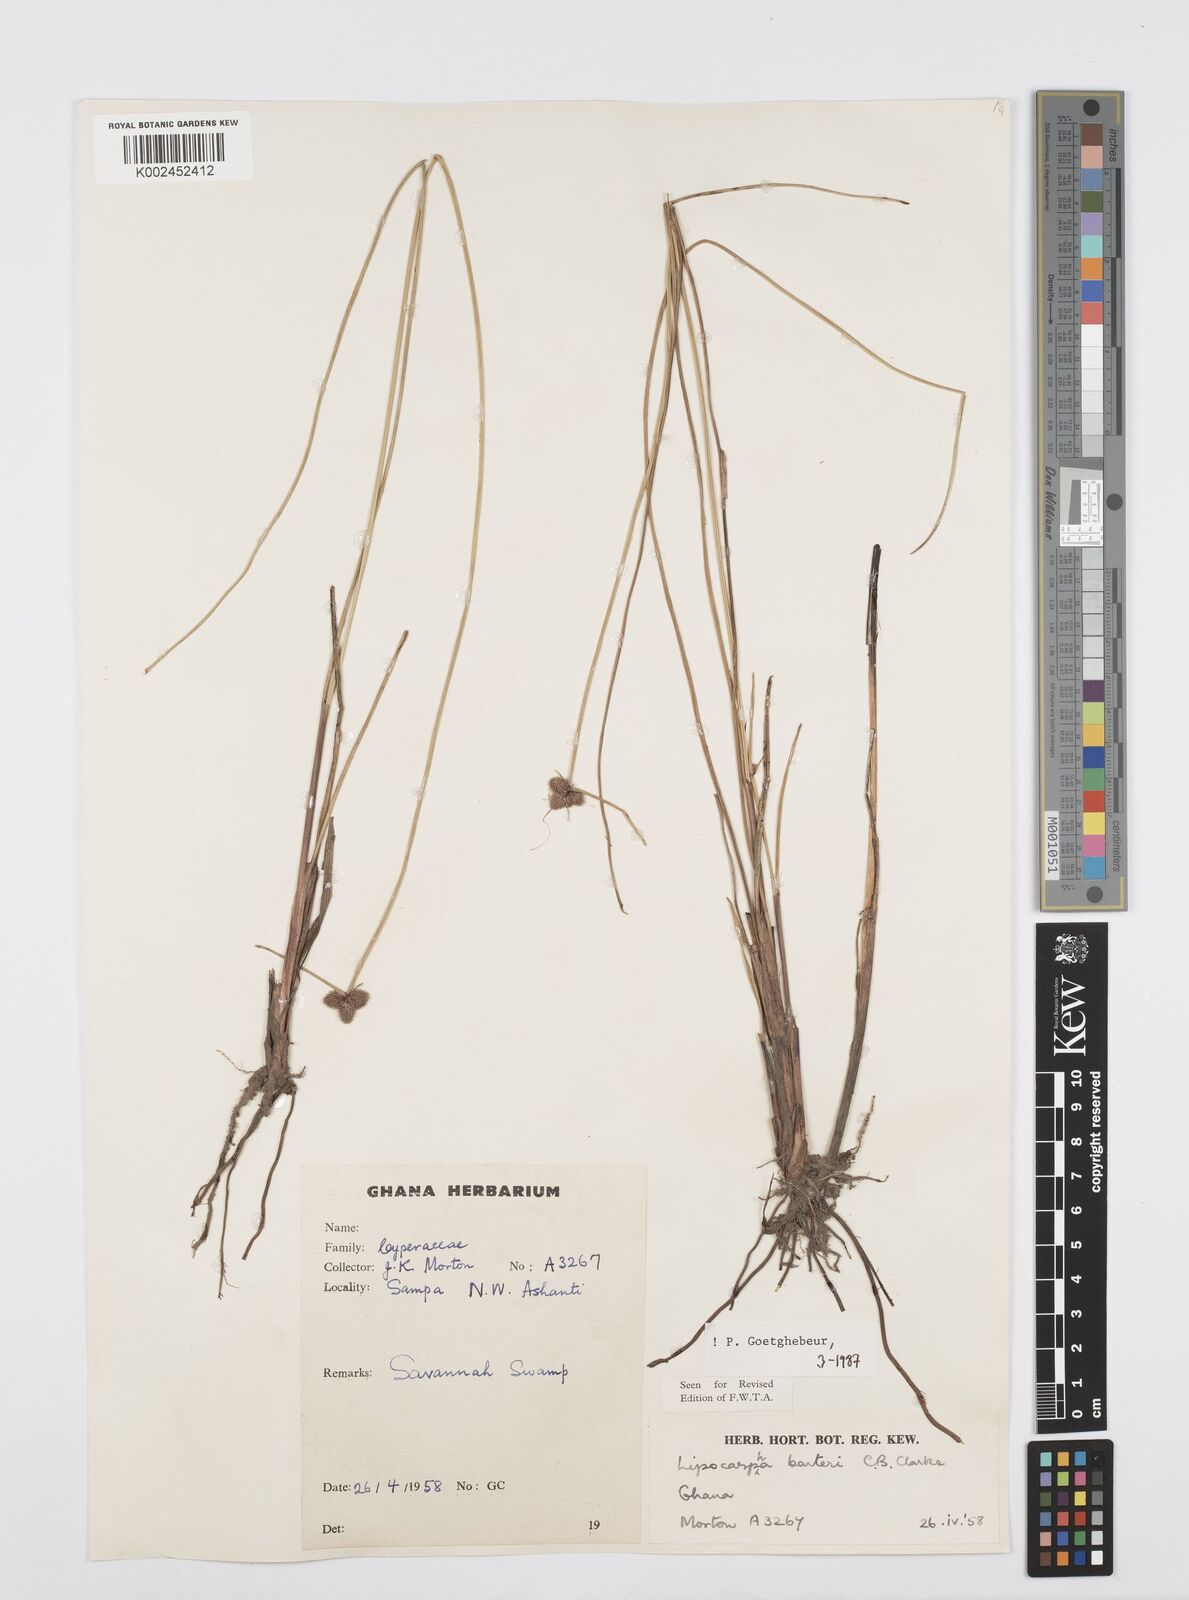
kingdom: Plantae
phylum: Tracheophyta
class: Liliopsida
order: Poales
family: Cyperaceae
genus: Cyperus
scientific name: Cyperus pustulatus
